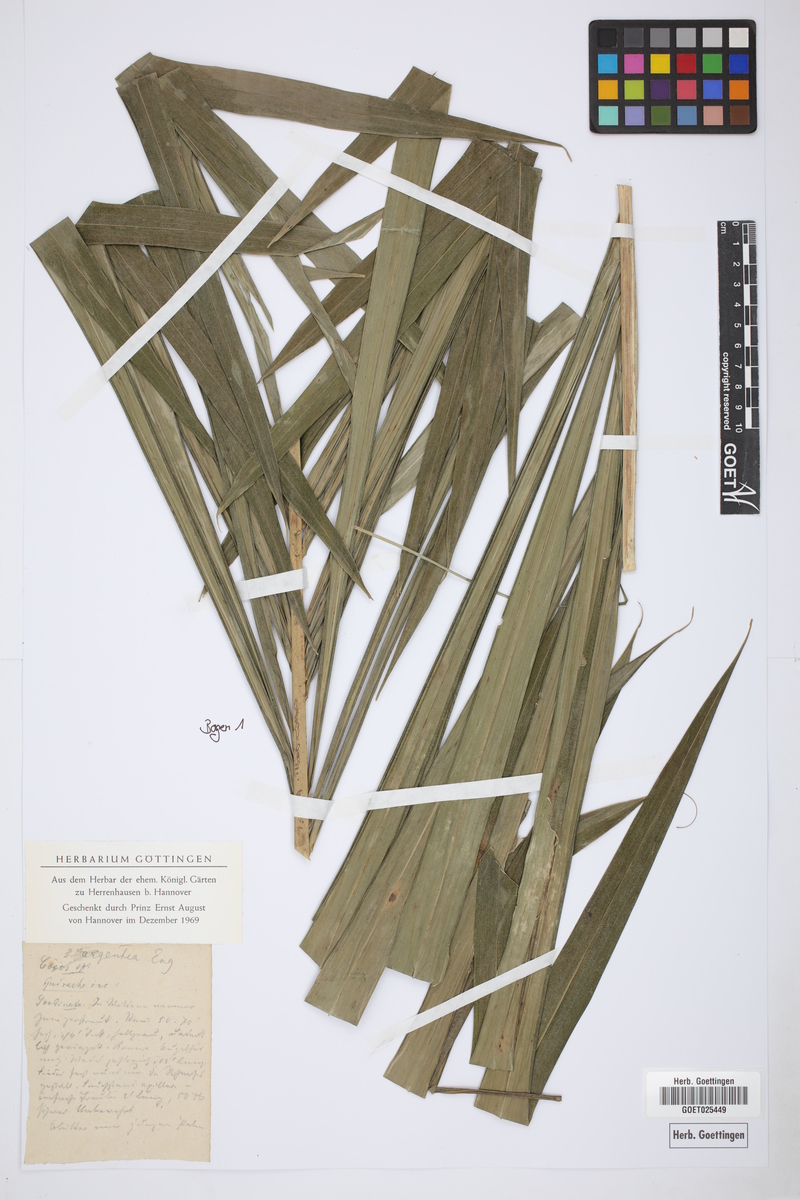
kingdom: Plantae
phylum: Tracheophyta
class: Liliopsida
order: Arecales
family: Arecaceae
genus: Syagrus
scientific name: Syagrus sancona
